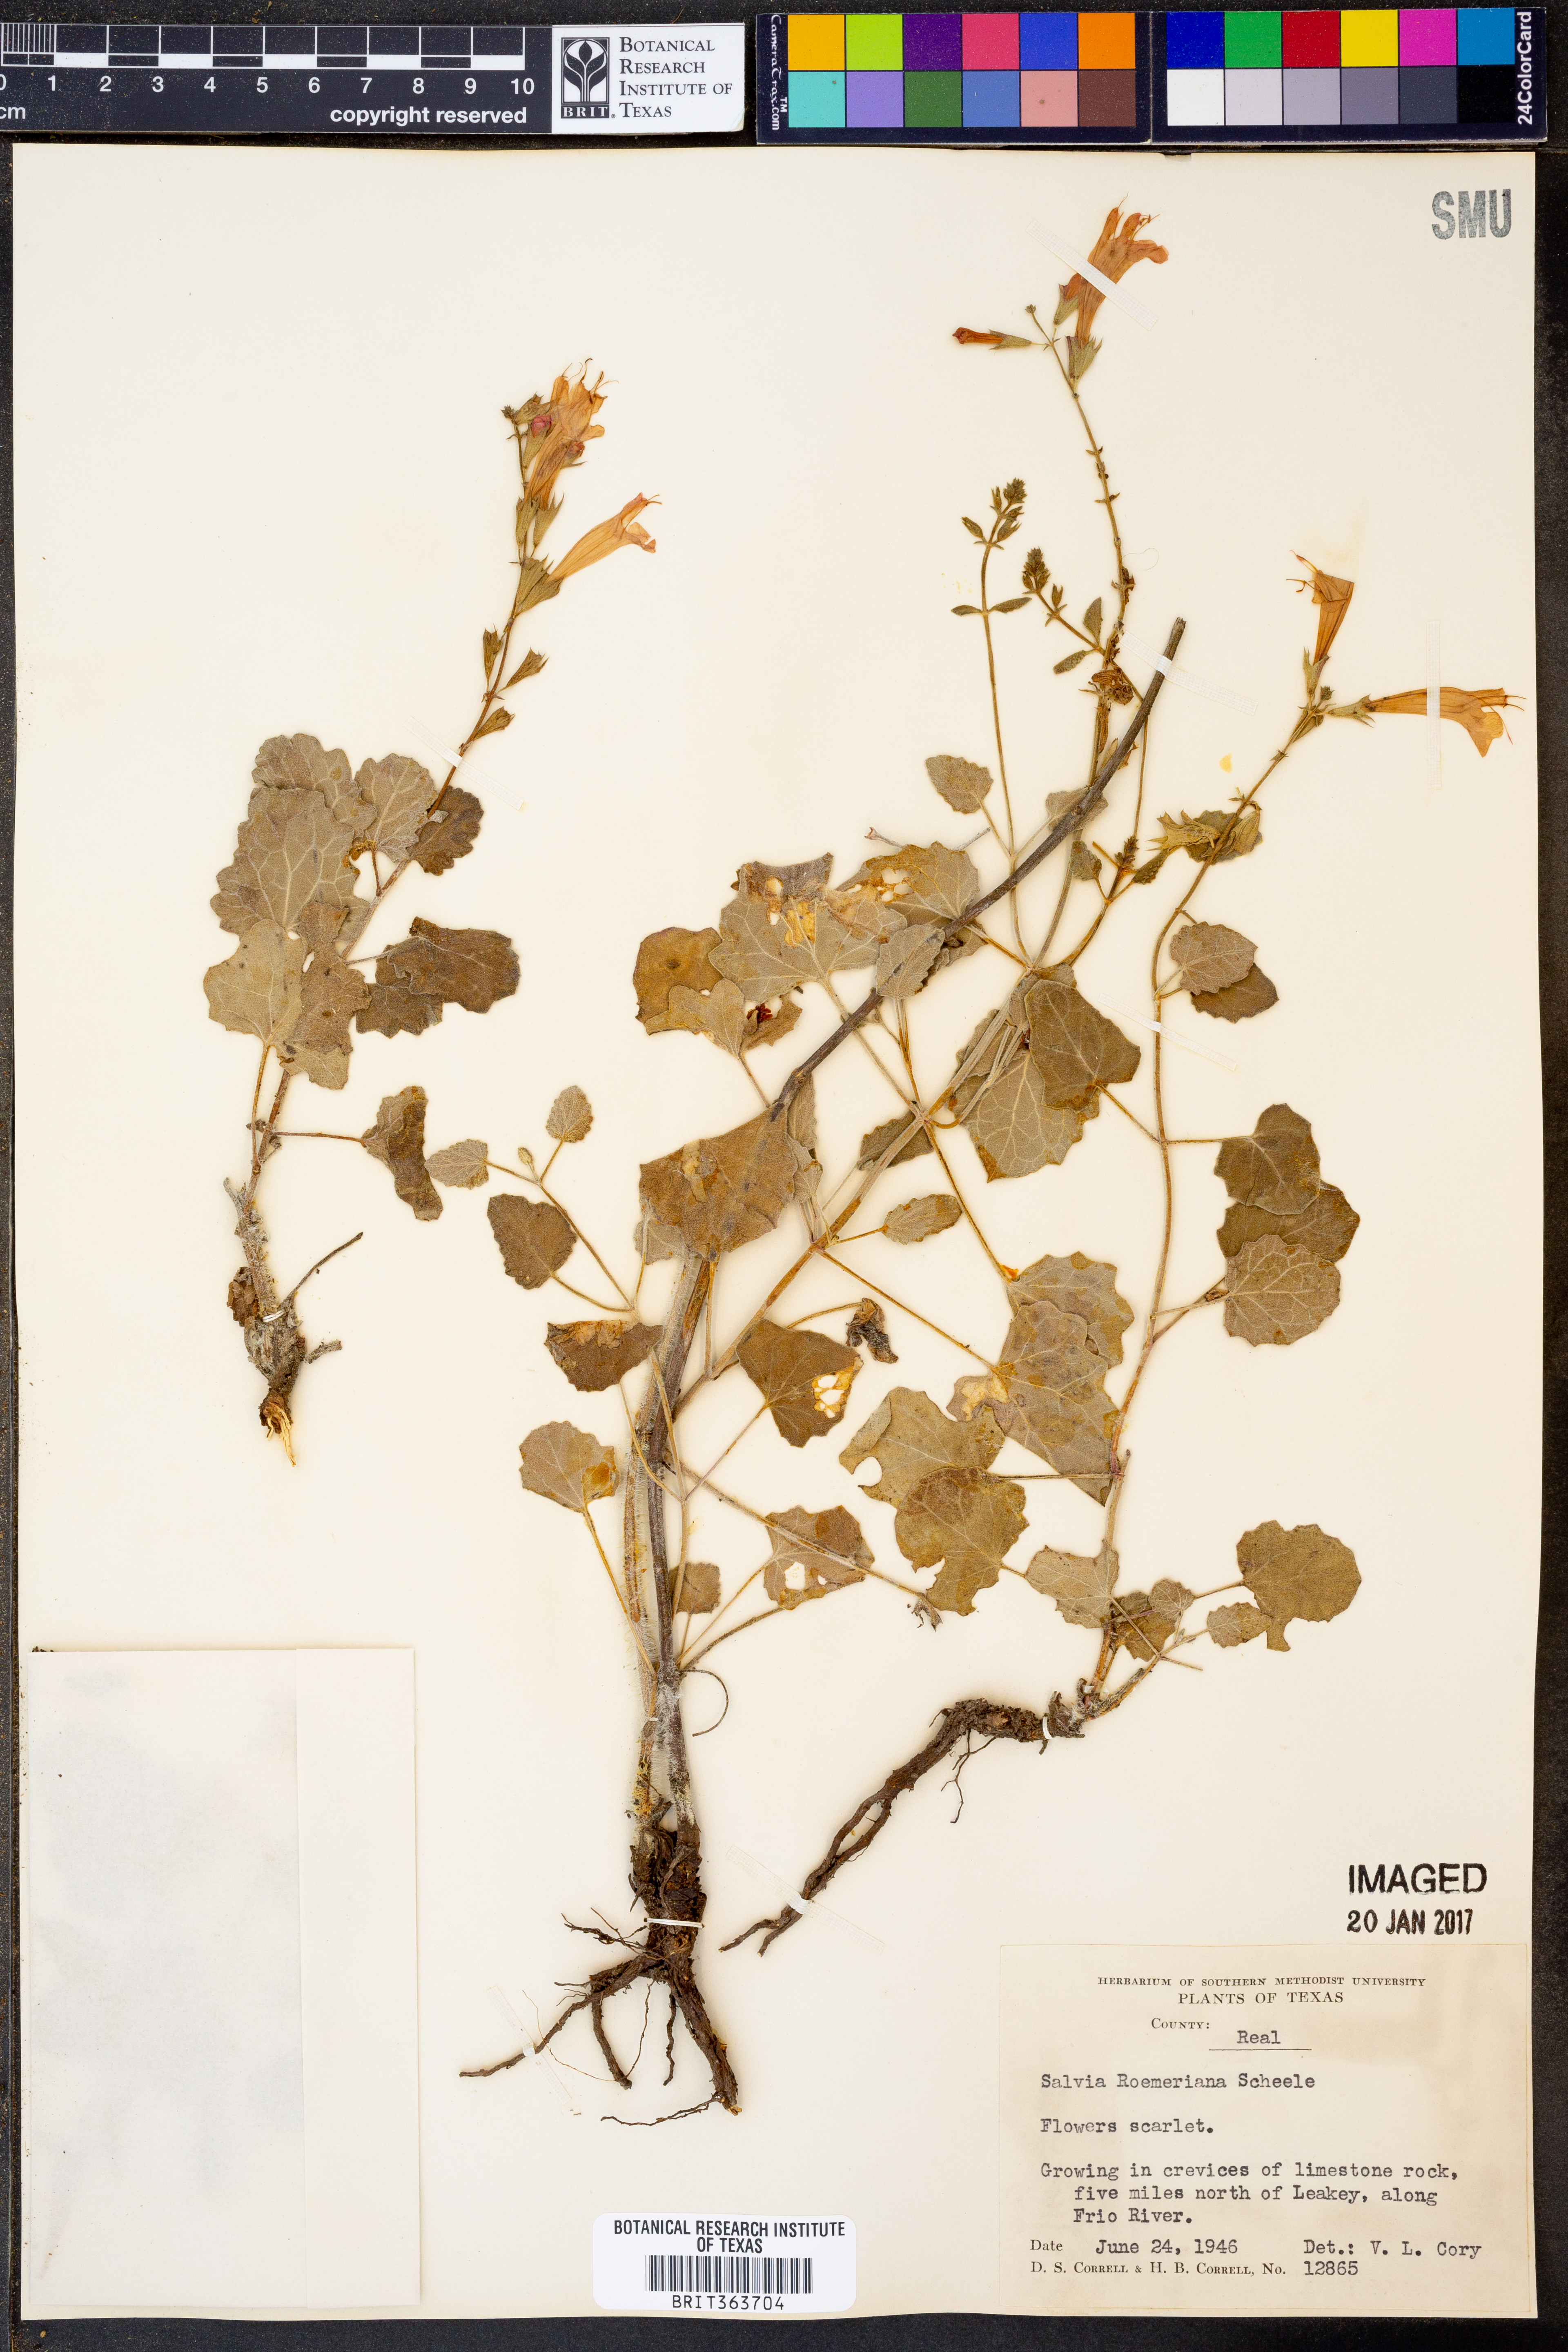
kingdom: Plantae
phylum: Tracheophyta
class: Magnoliopsida
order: Lamiales
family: Lamiaceae
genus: Salvia
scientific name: Salvia roemeriana
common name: Cedar sage
